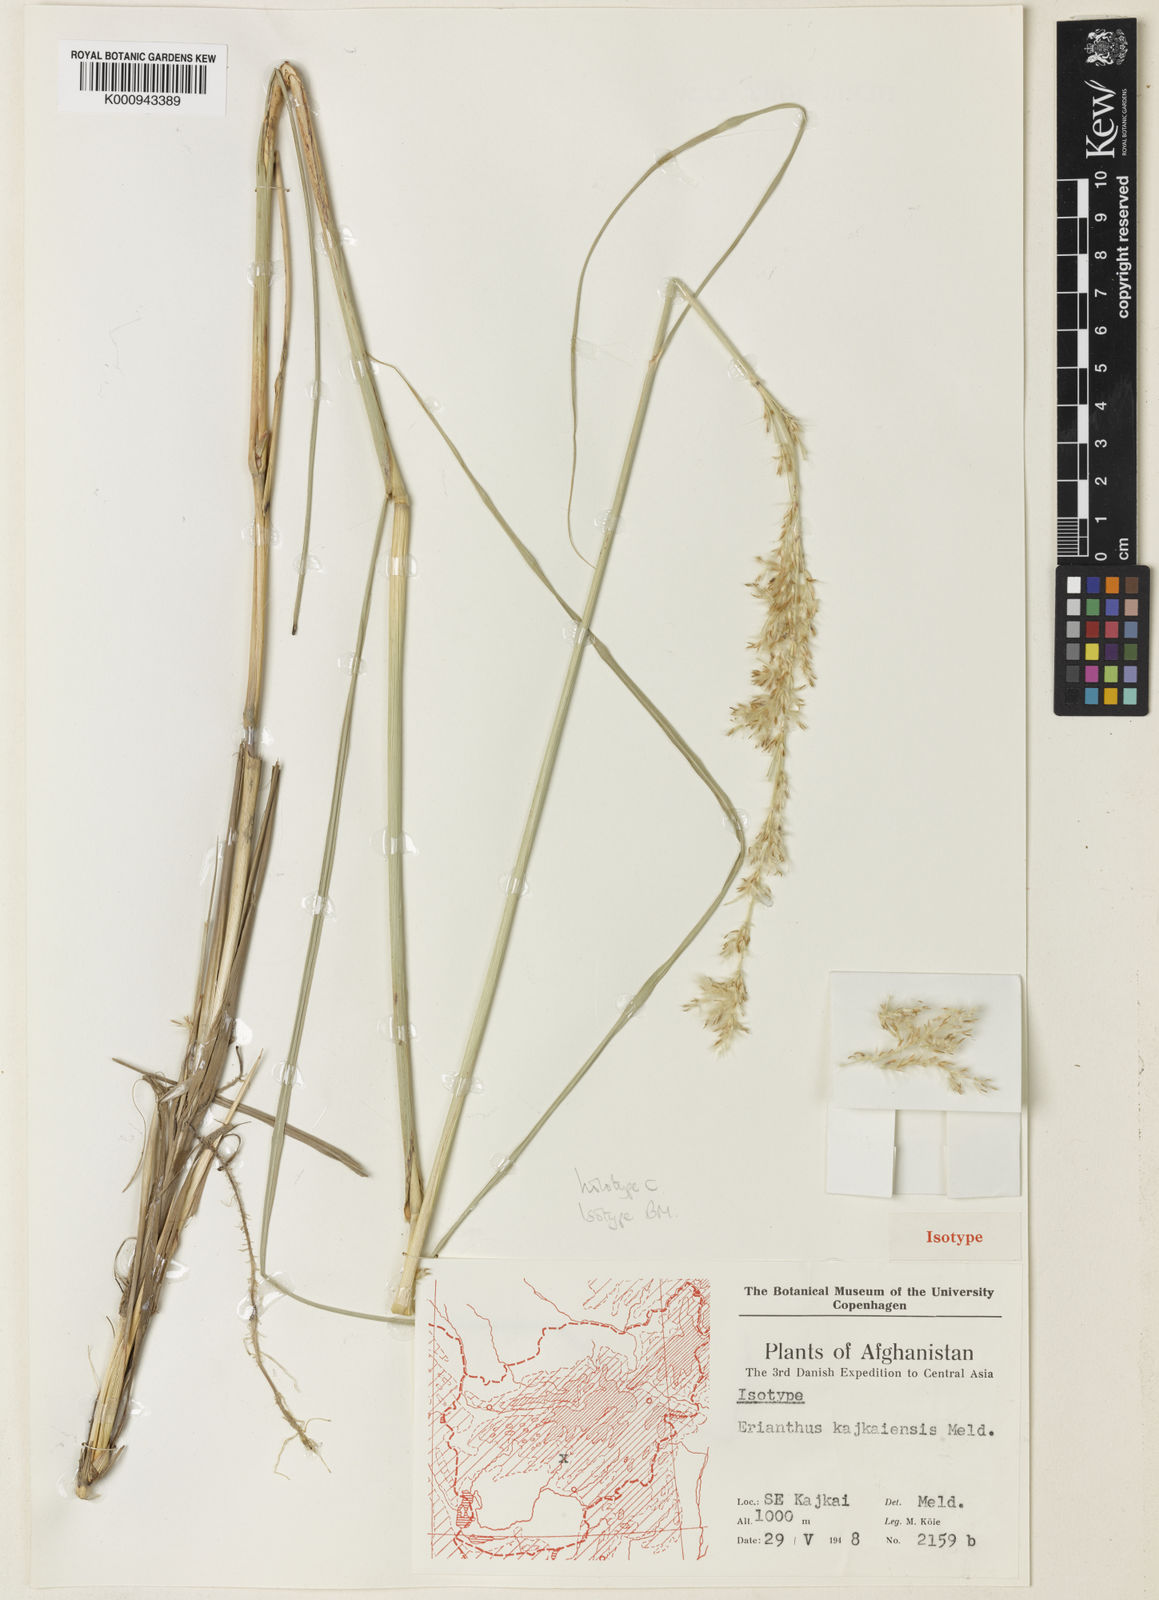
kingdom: Plantae
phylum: Tracheophyta
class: Liliopsida
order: Poales
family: Poaceae
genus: Saccharum
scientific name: Saccharum spontaneum
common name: Wild sugarcane
